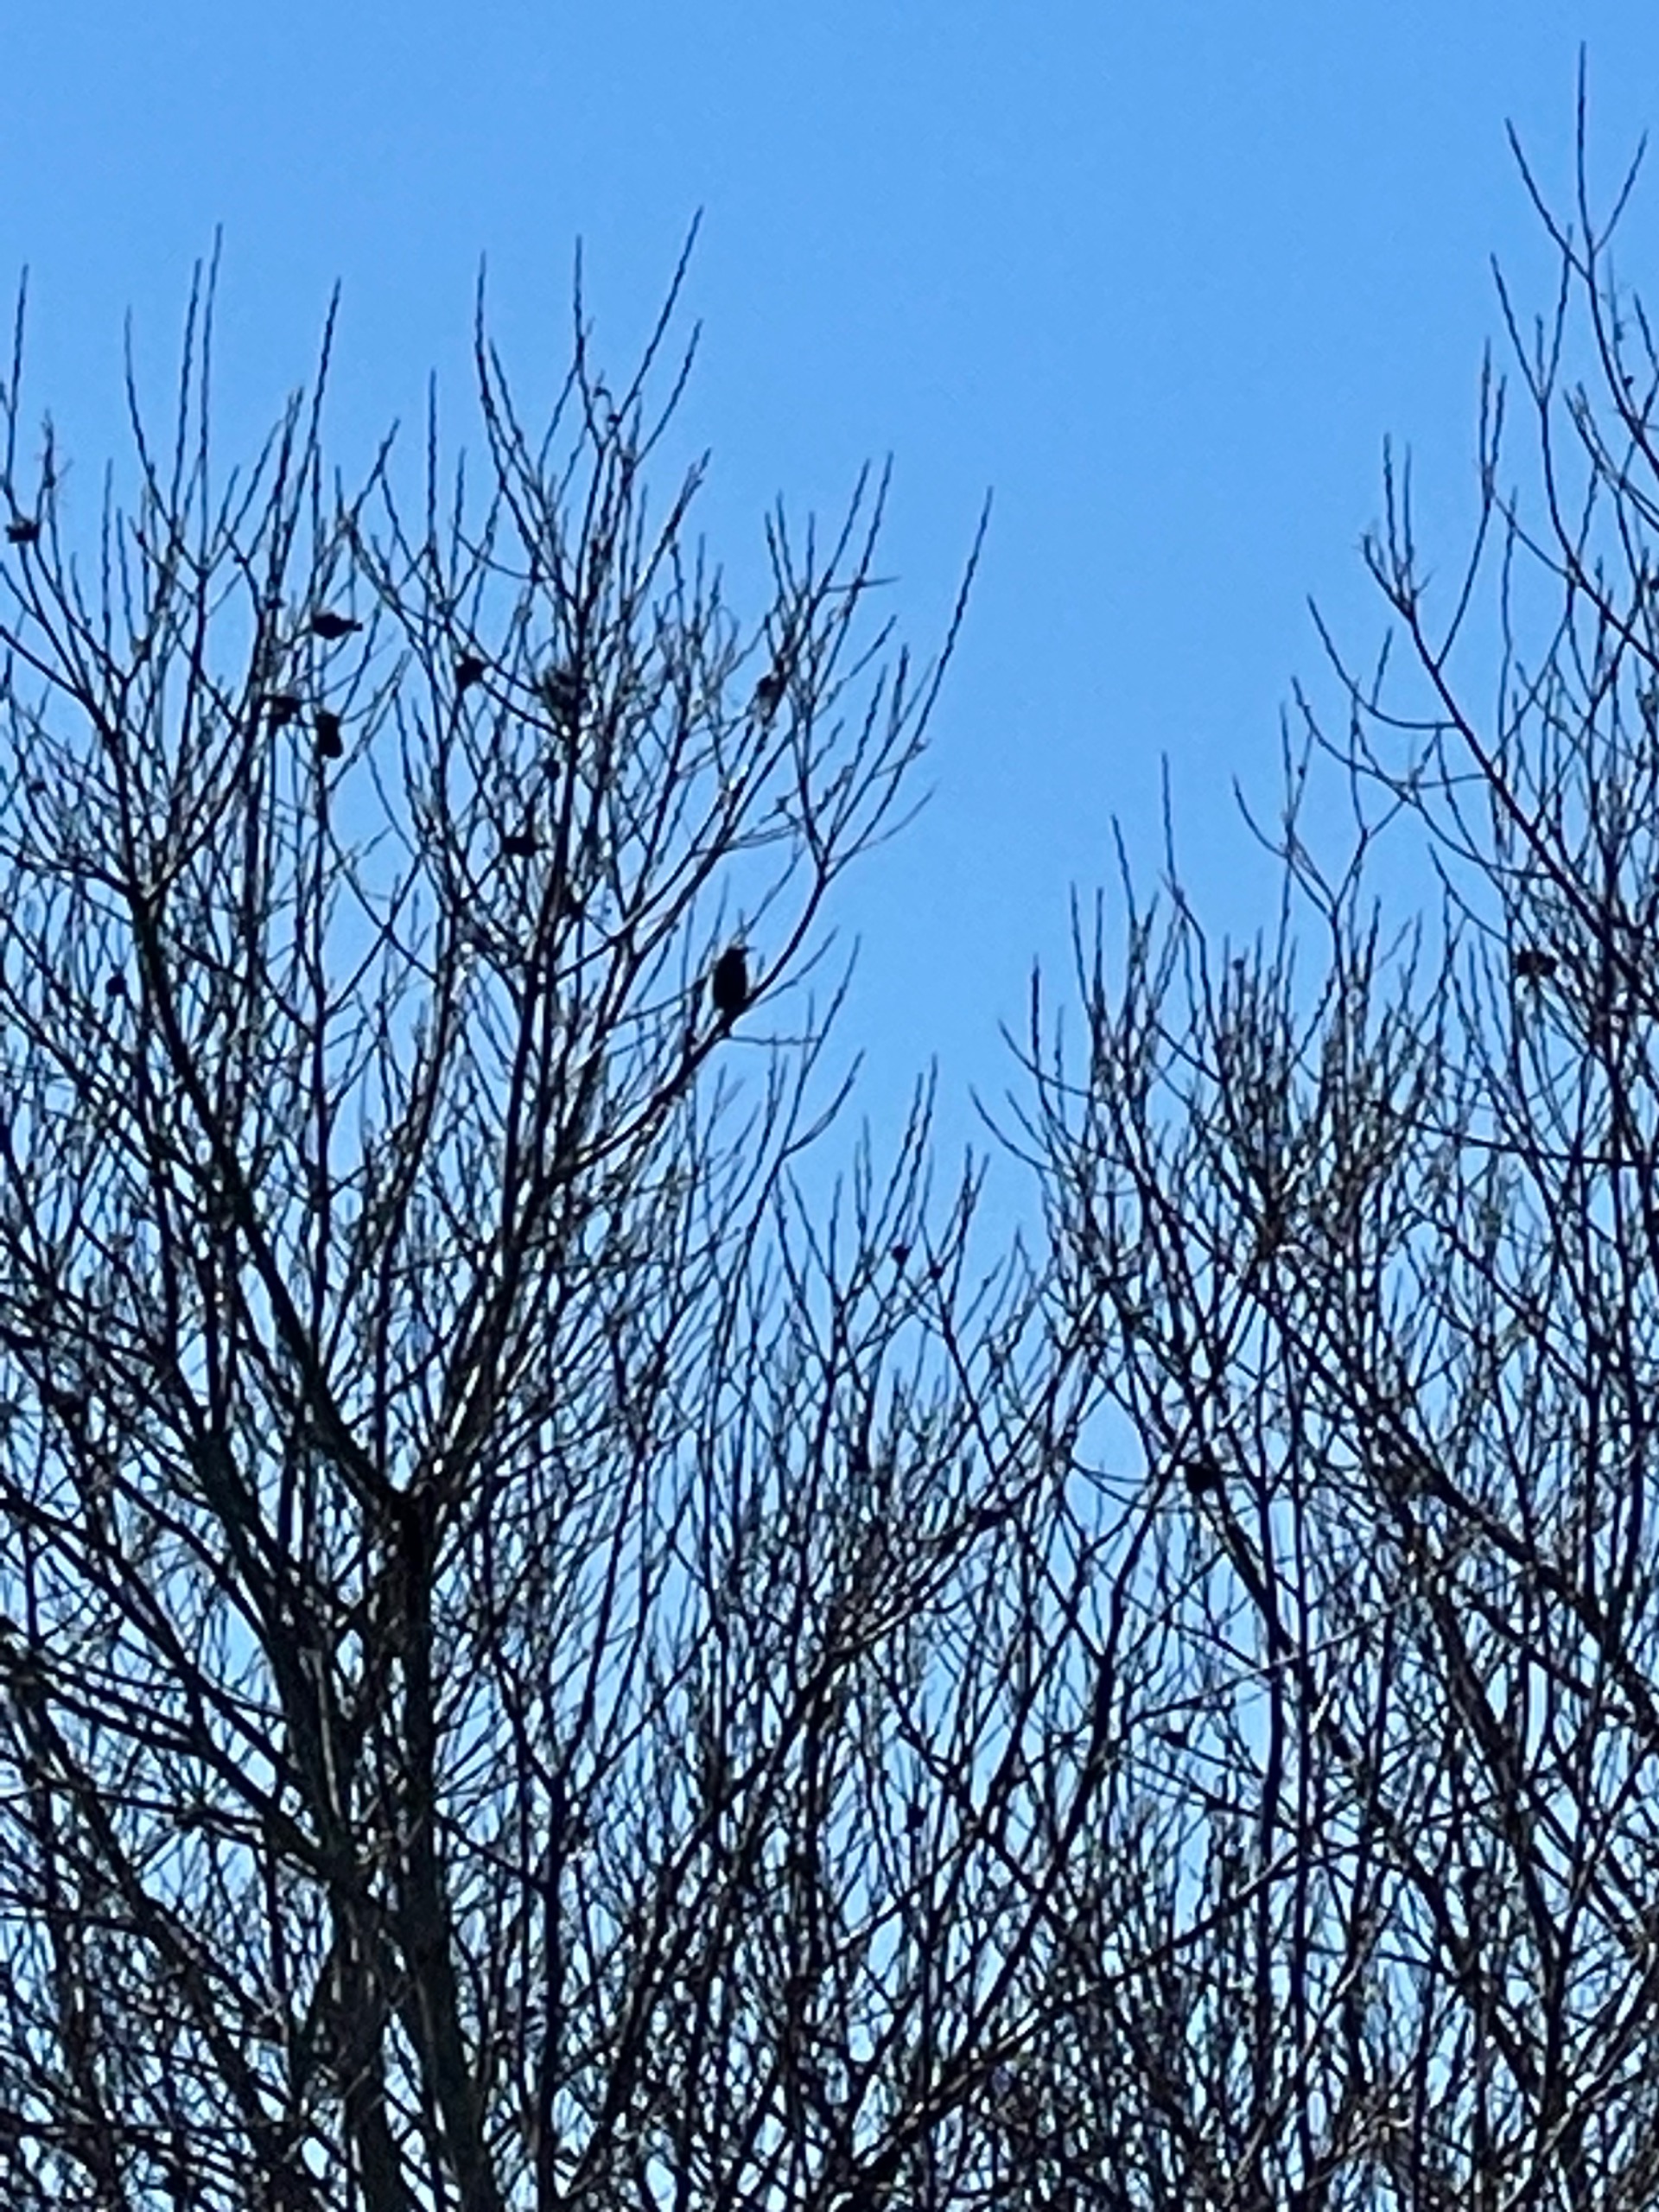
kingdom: Animalia
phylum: Chordata
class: Aves
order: Passeriformes
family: Sturnidae
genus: Sturnus
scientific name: Sturnus vulgaris
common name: Stær
